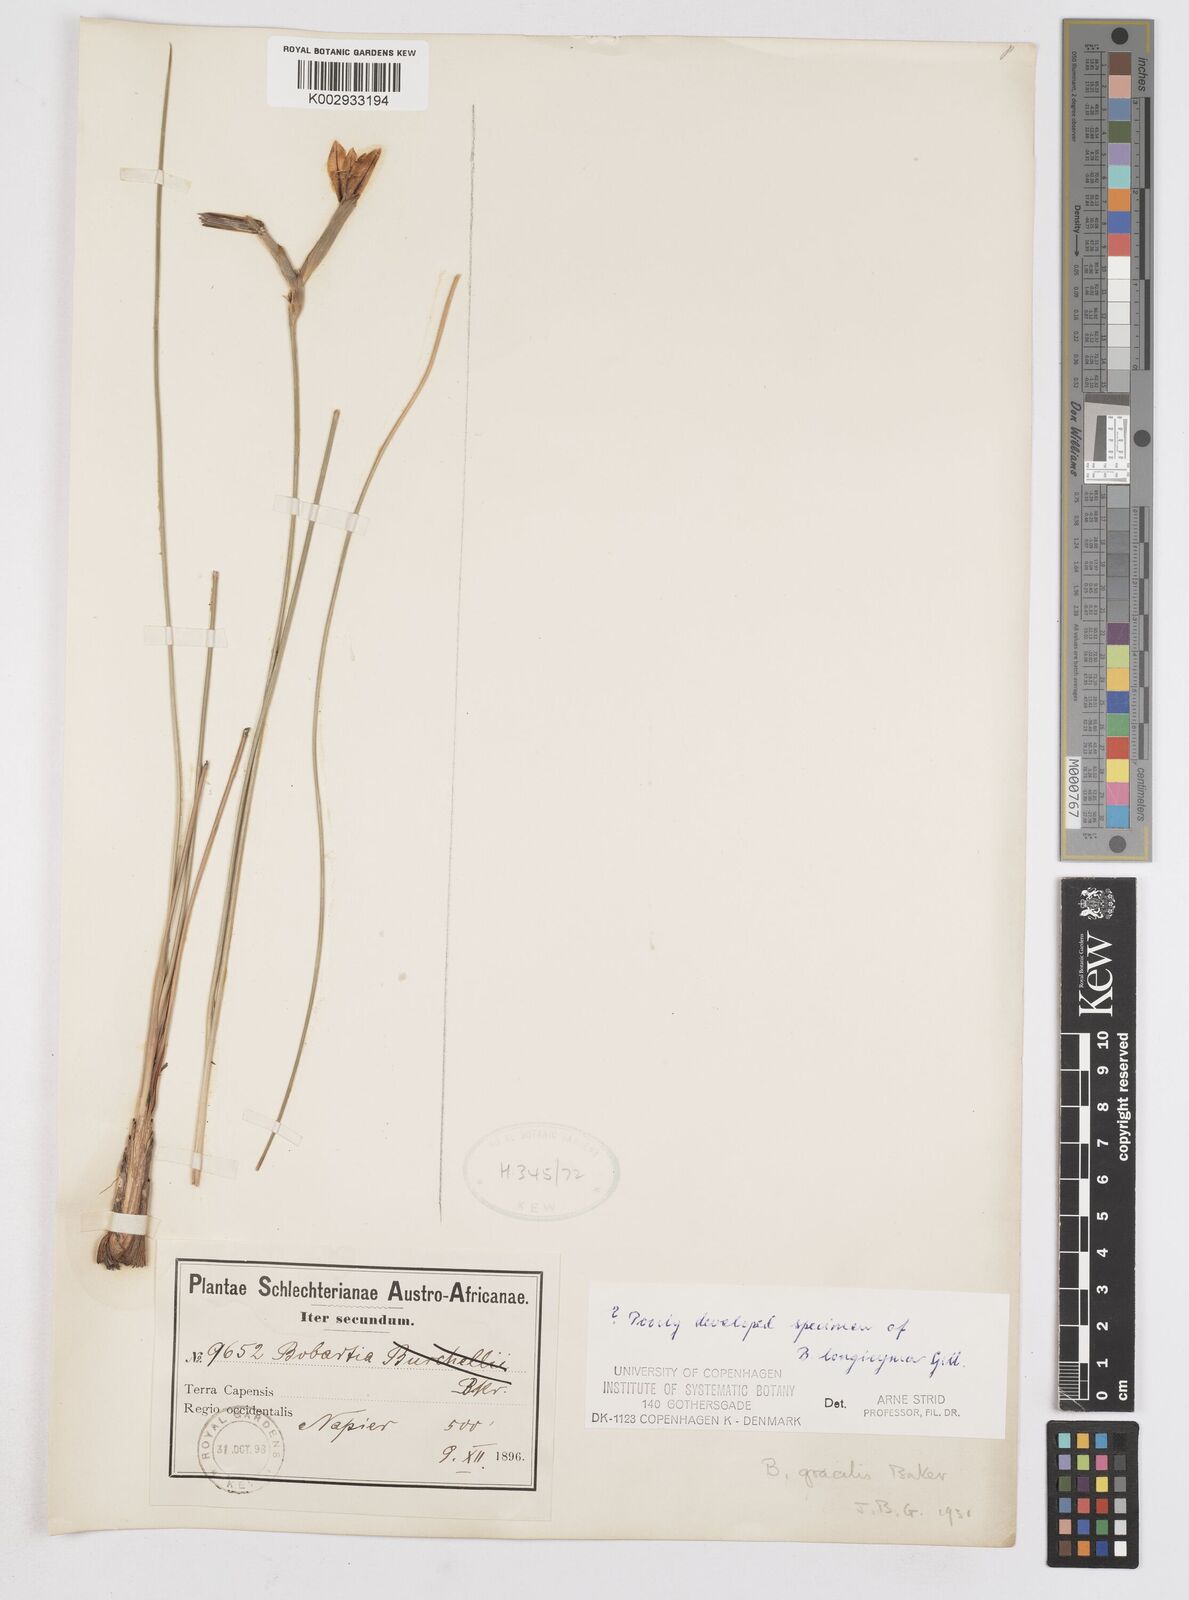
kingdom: Plantae
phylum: Tracheophyta
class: Liliopsida
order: Asparagales
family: Iridaceae
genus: Bobartia
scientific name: Bobartia longicyma
